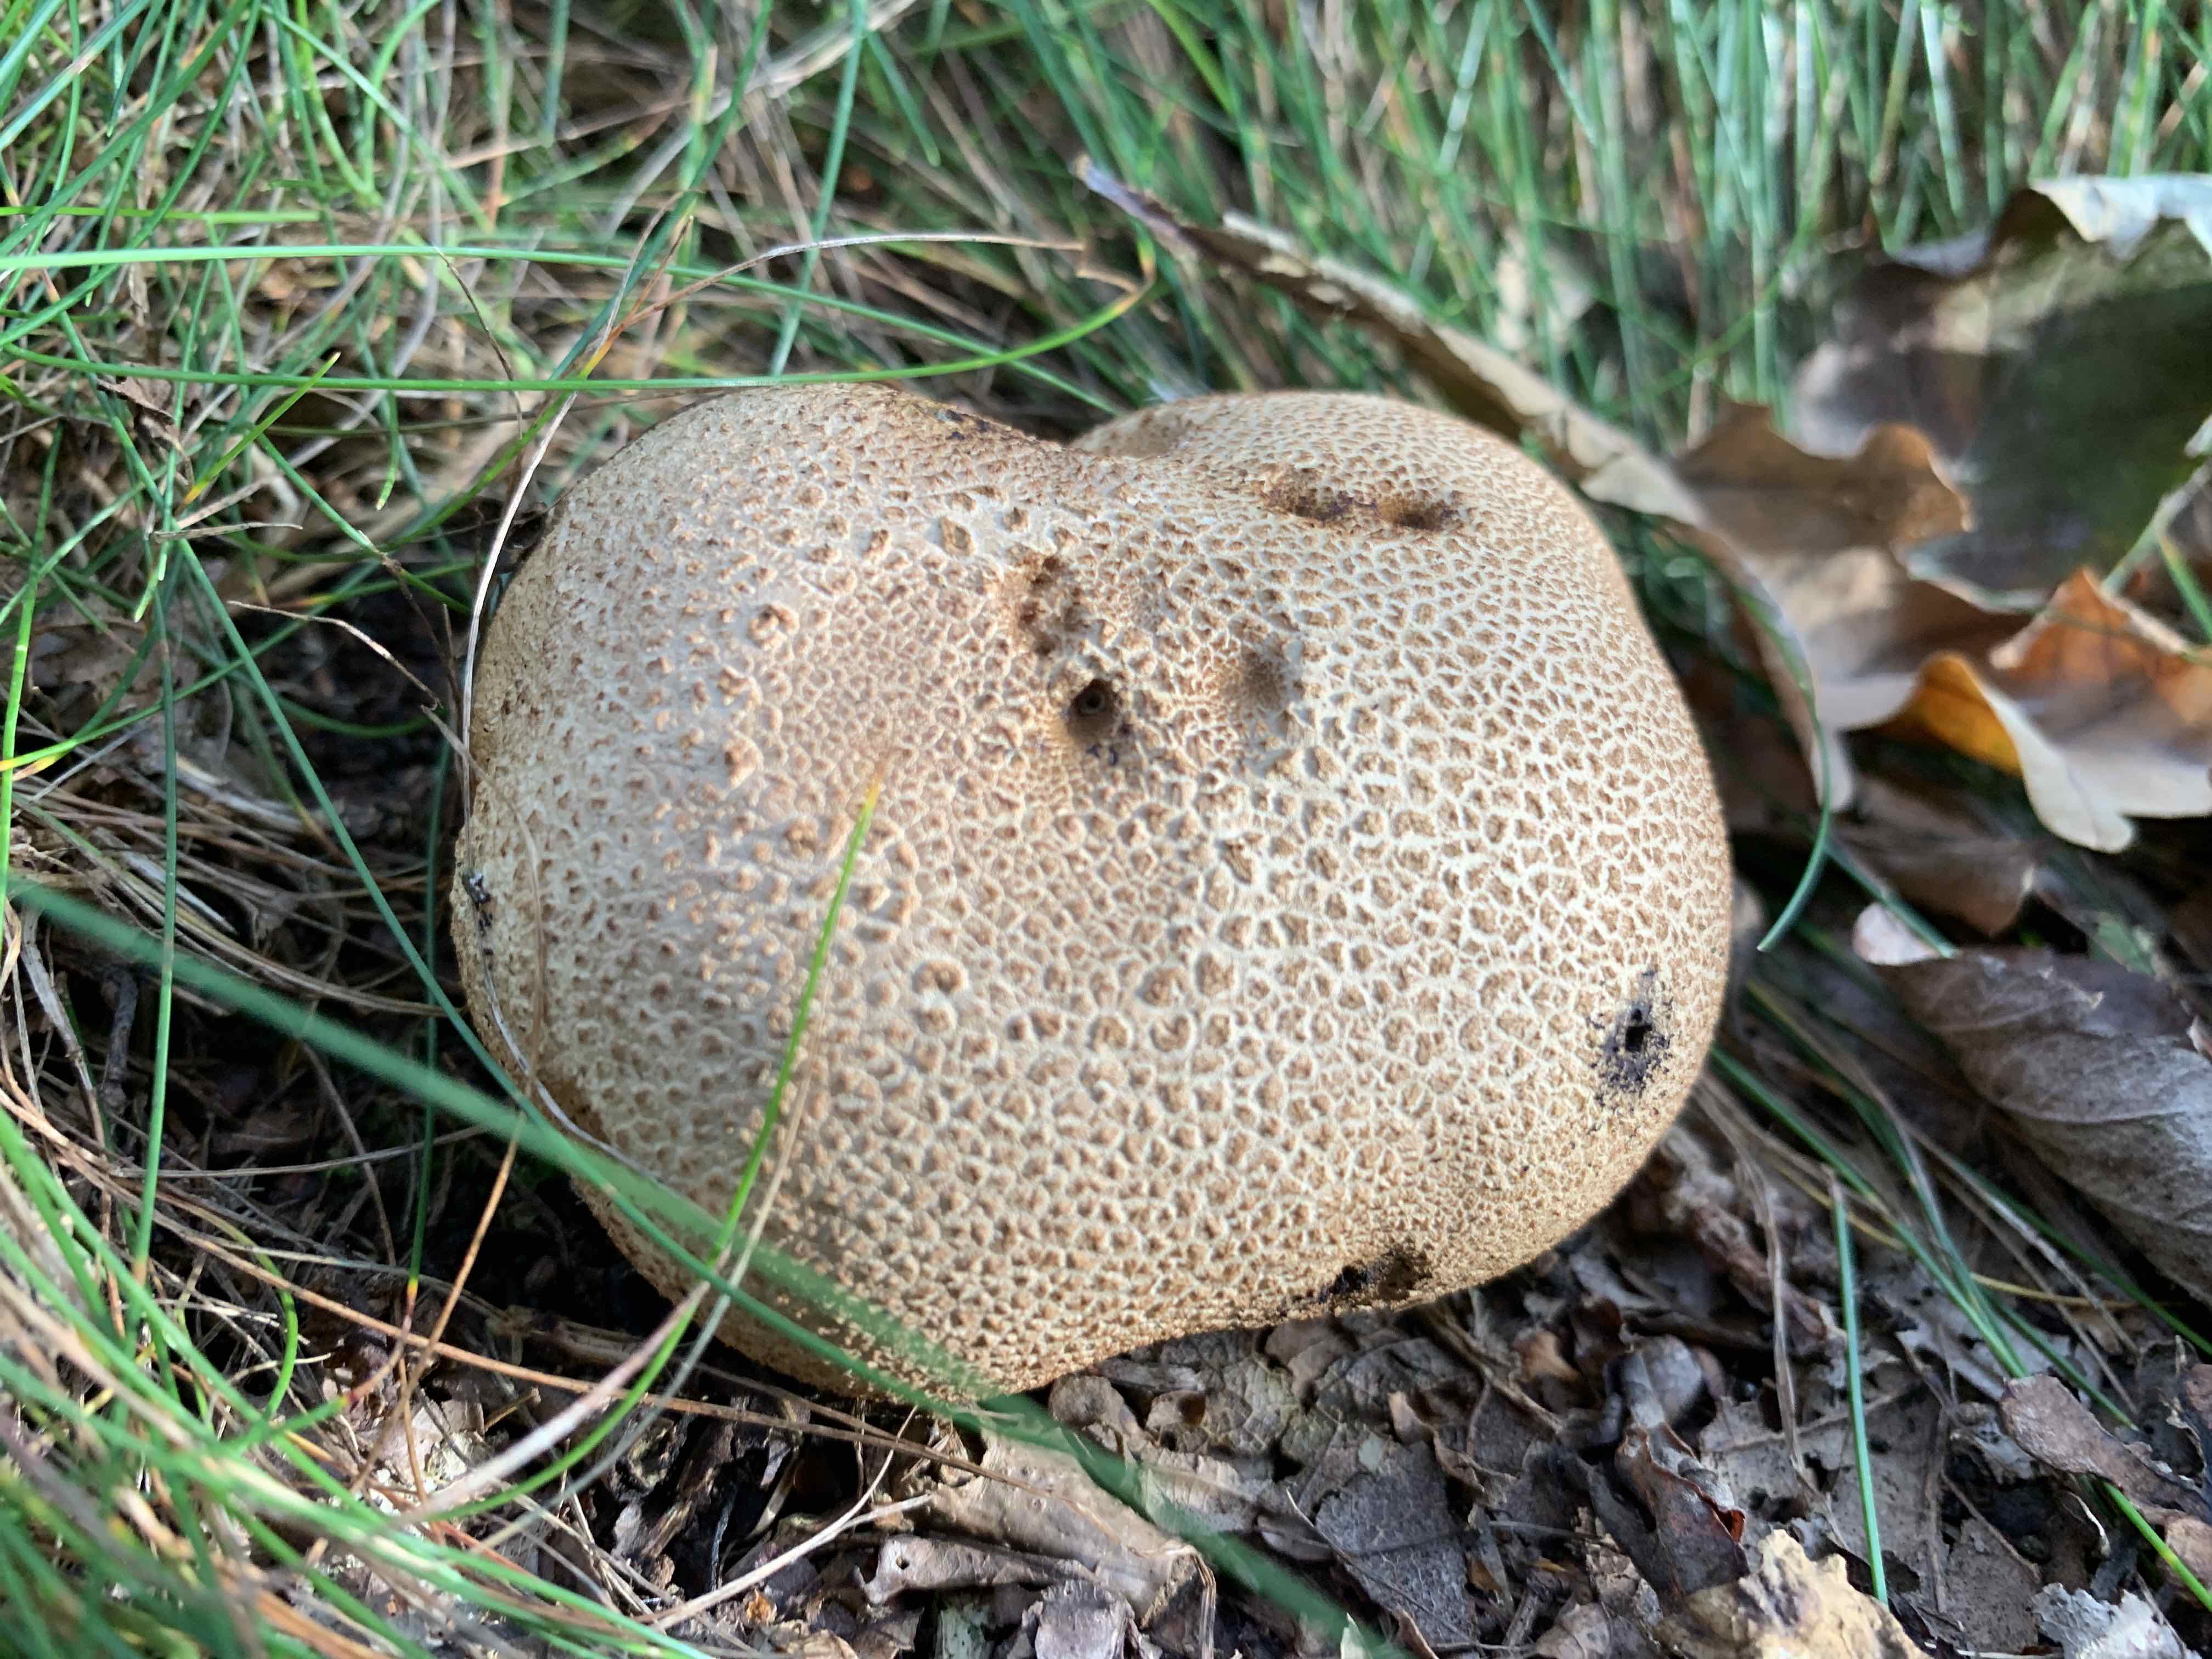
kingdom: Fungi
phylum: Basidiomycota
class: Agaricomycetes
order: Boletales
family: Sclerodermataceae
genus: Scleroderma
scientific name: Scleroderma citrinum
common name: almindelig bruskbold
